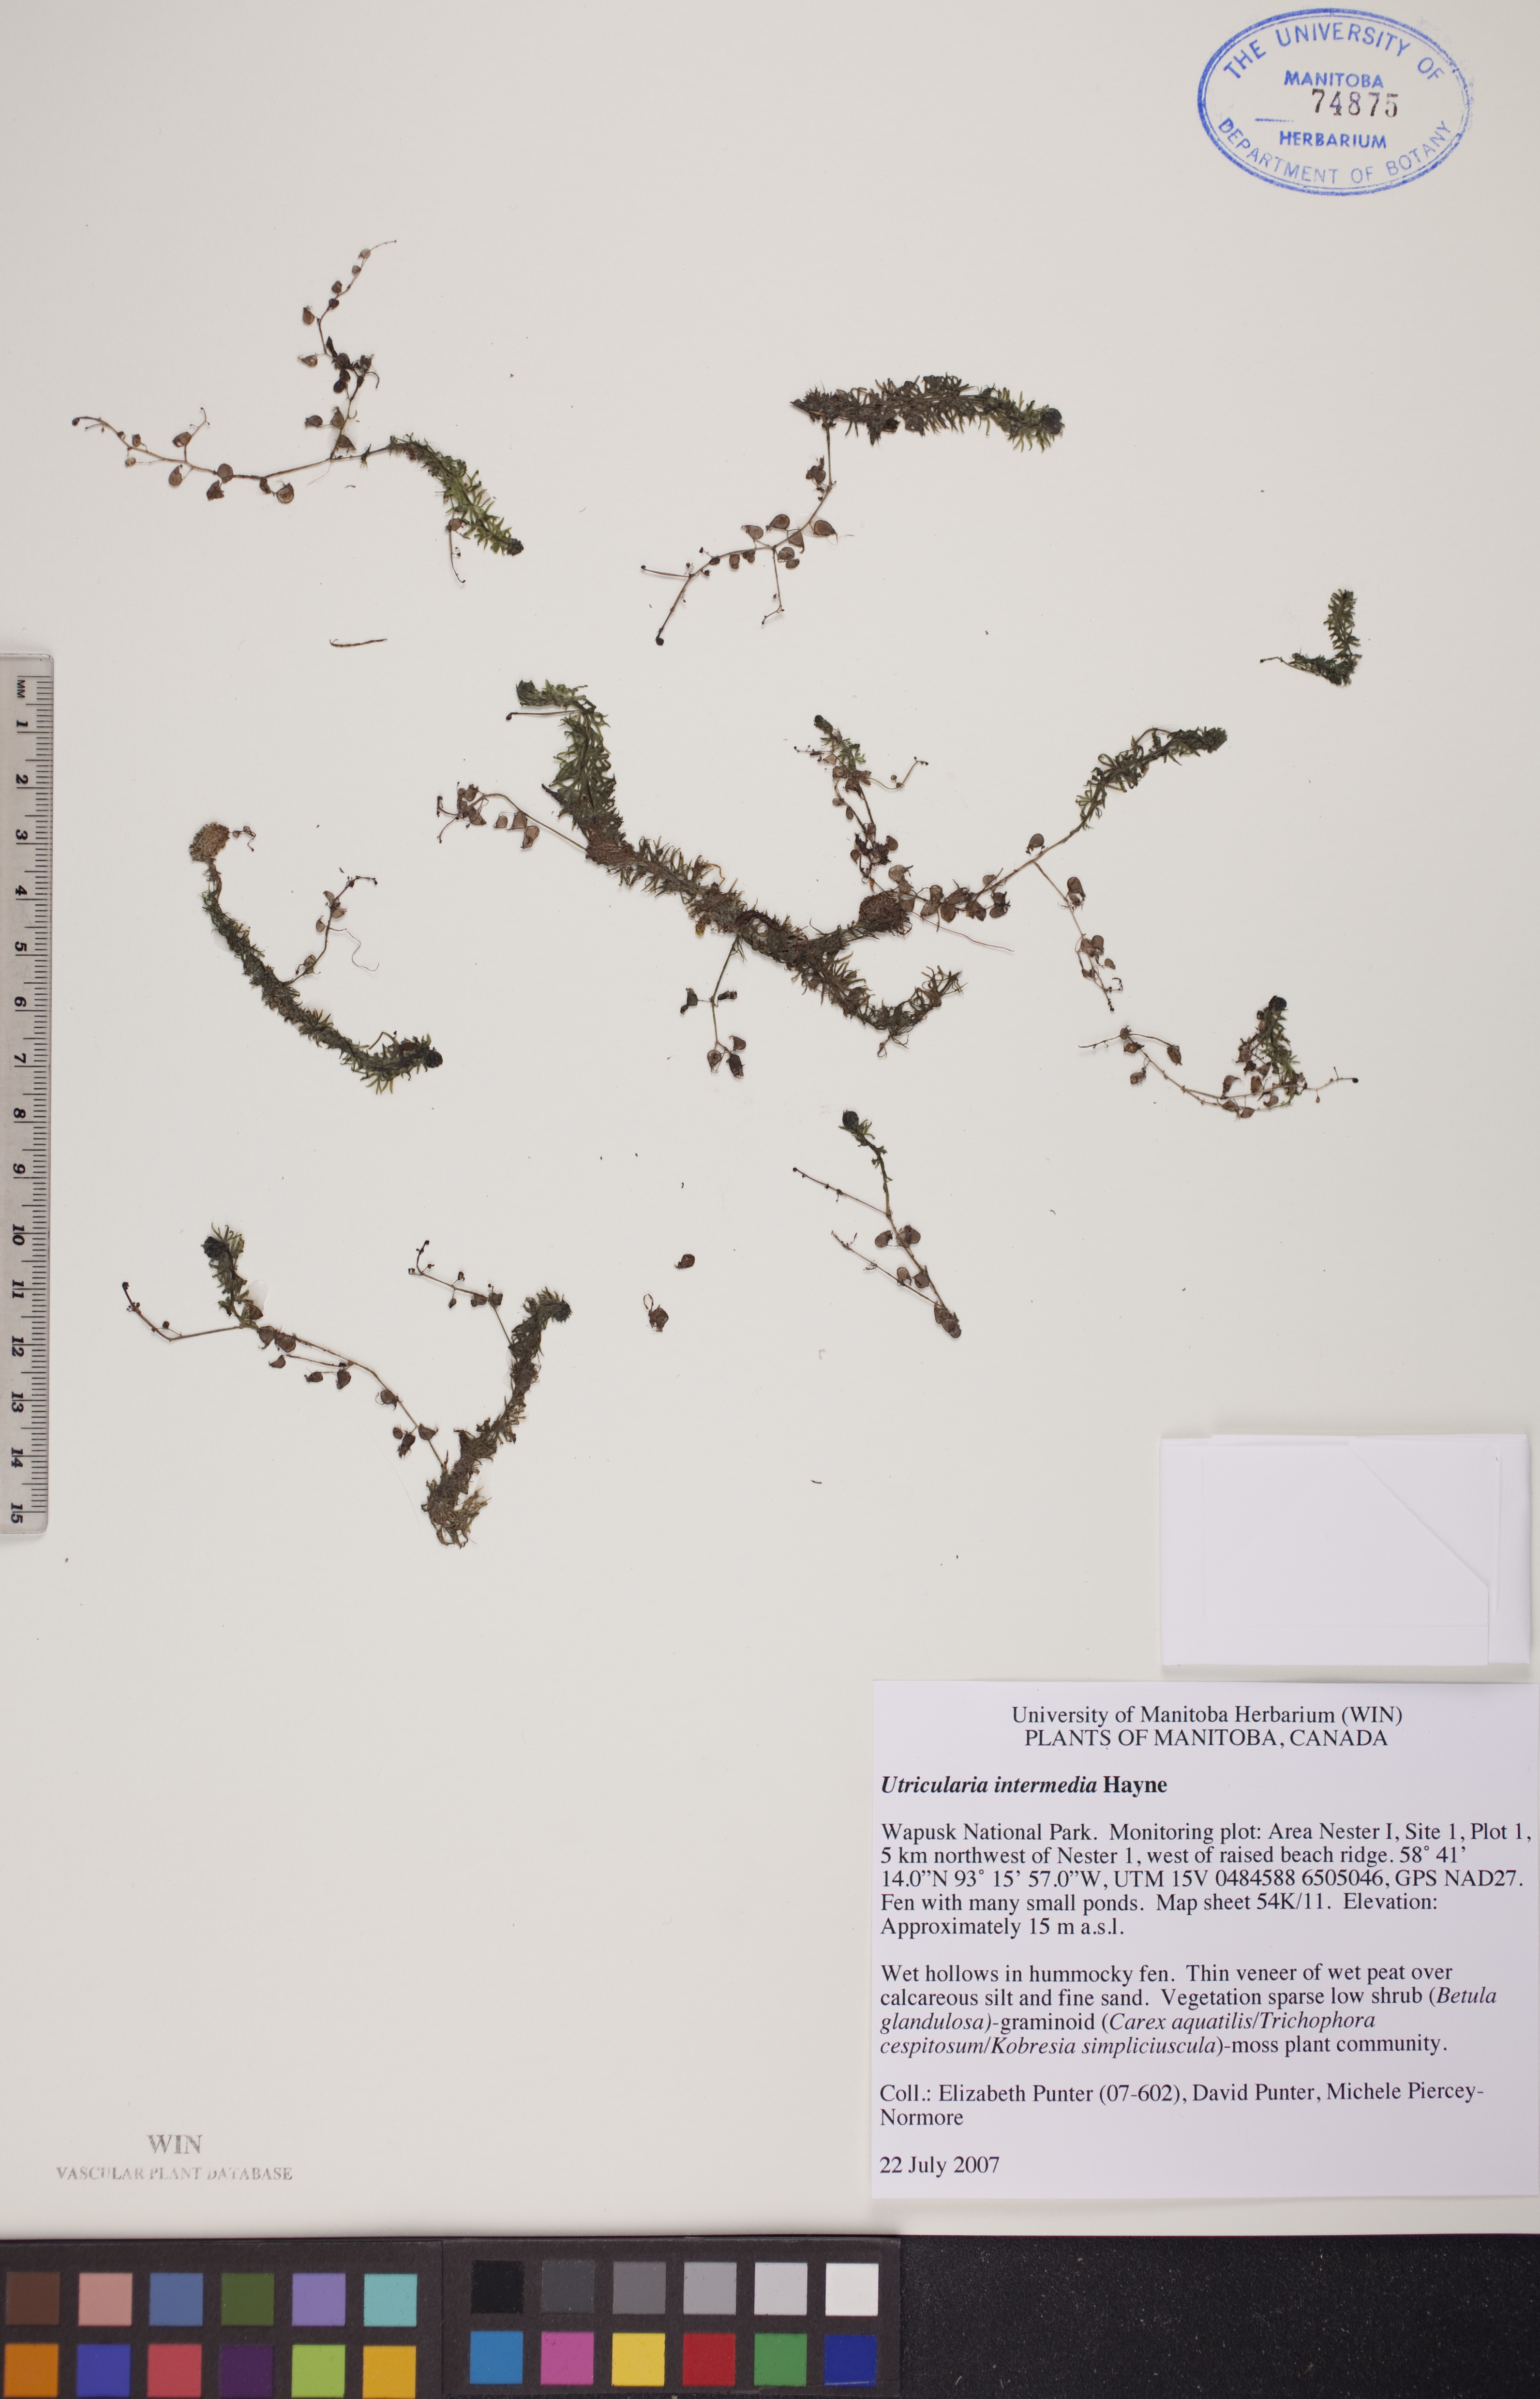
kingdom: Plantae
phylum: Tracheophyta
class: Magnoliopsida
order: Lamiales
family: Lentibulariaceae
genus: Utricularia
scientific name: Utricularia intermedia
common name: Intermediate bladderwort
